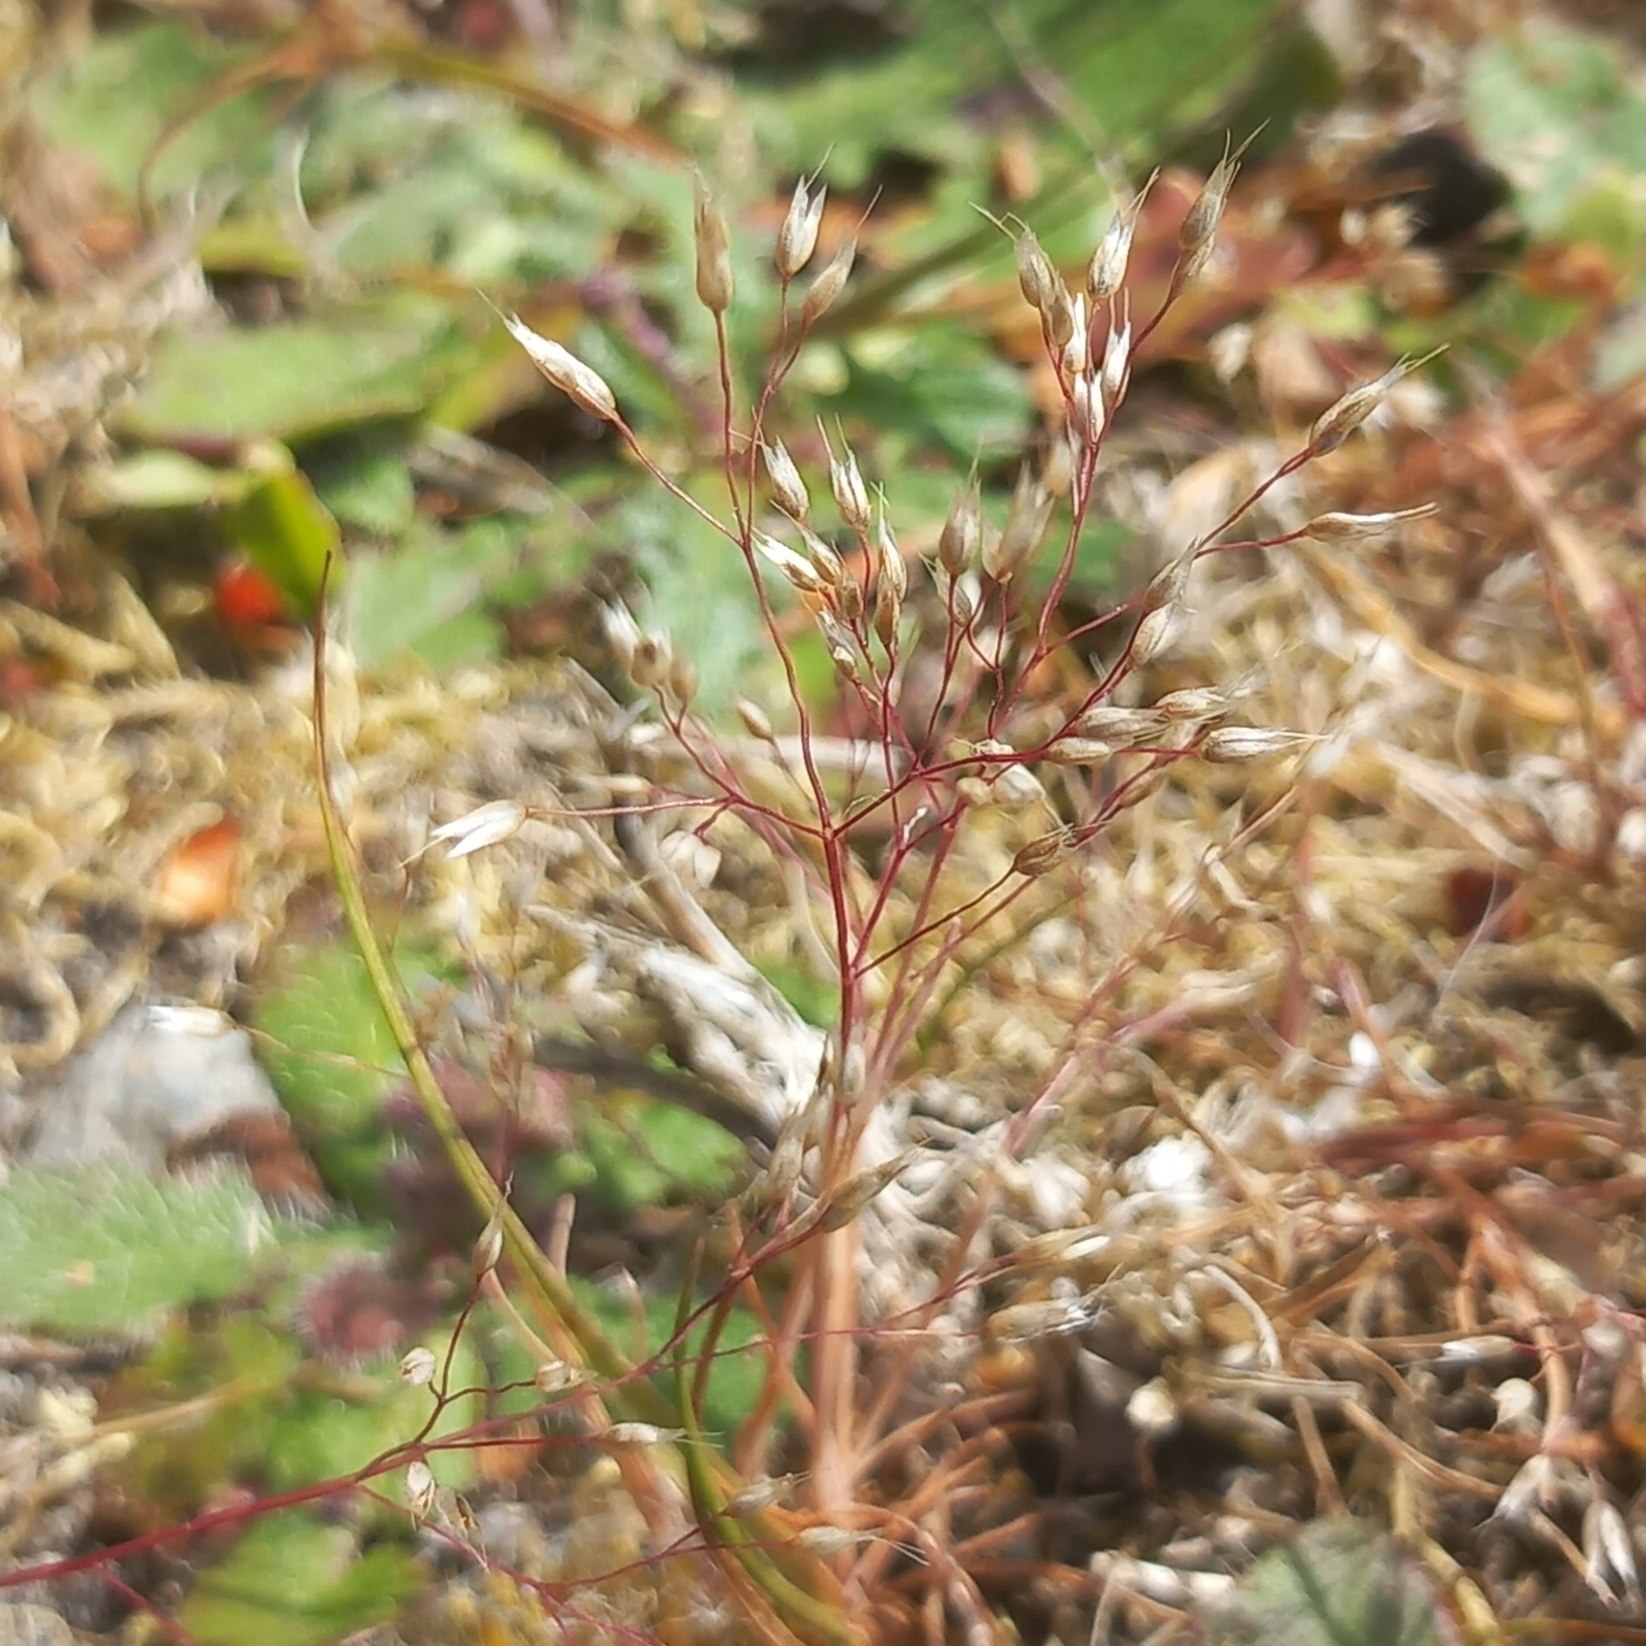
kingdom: Plantae
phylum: Tracheophyta
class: Liliopsida
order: Poales
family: Poaceae
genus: Aira
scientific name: Aira caryophyllea
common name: Udspærret dværgbunke
